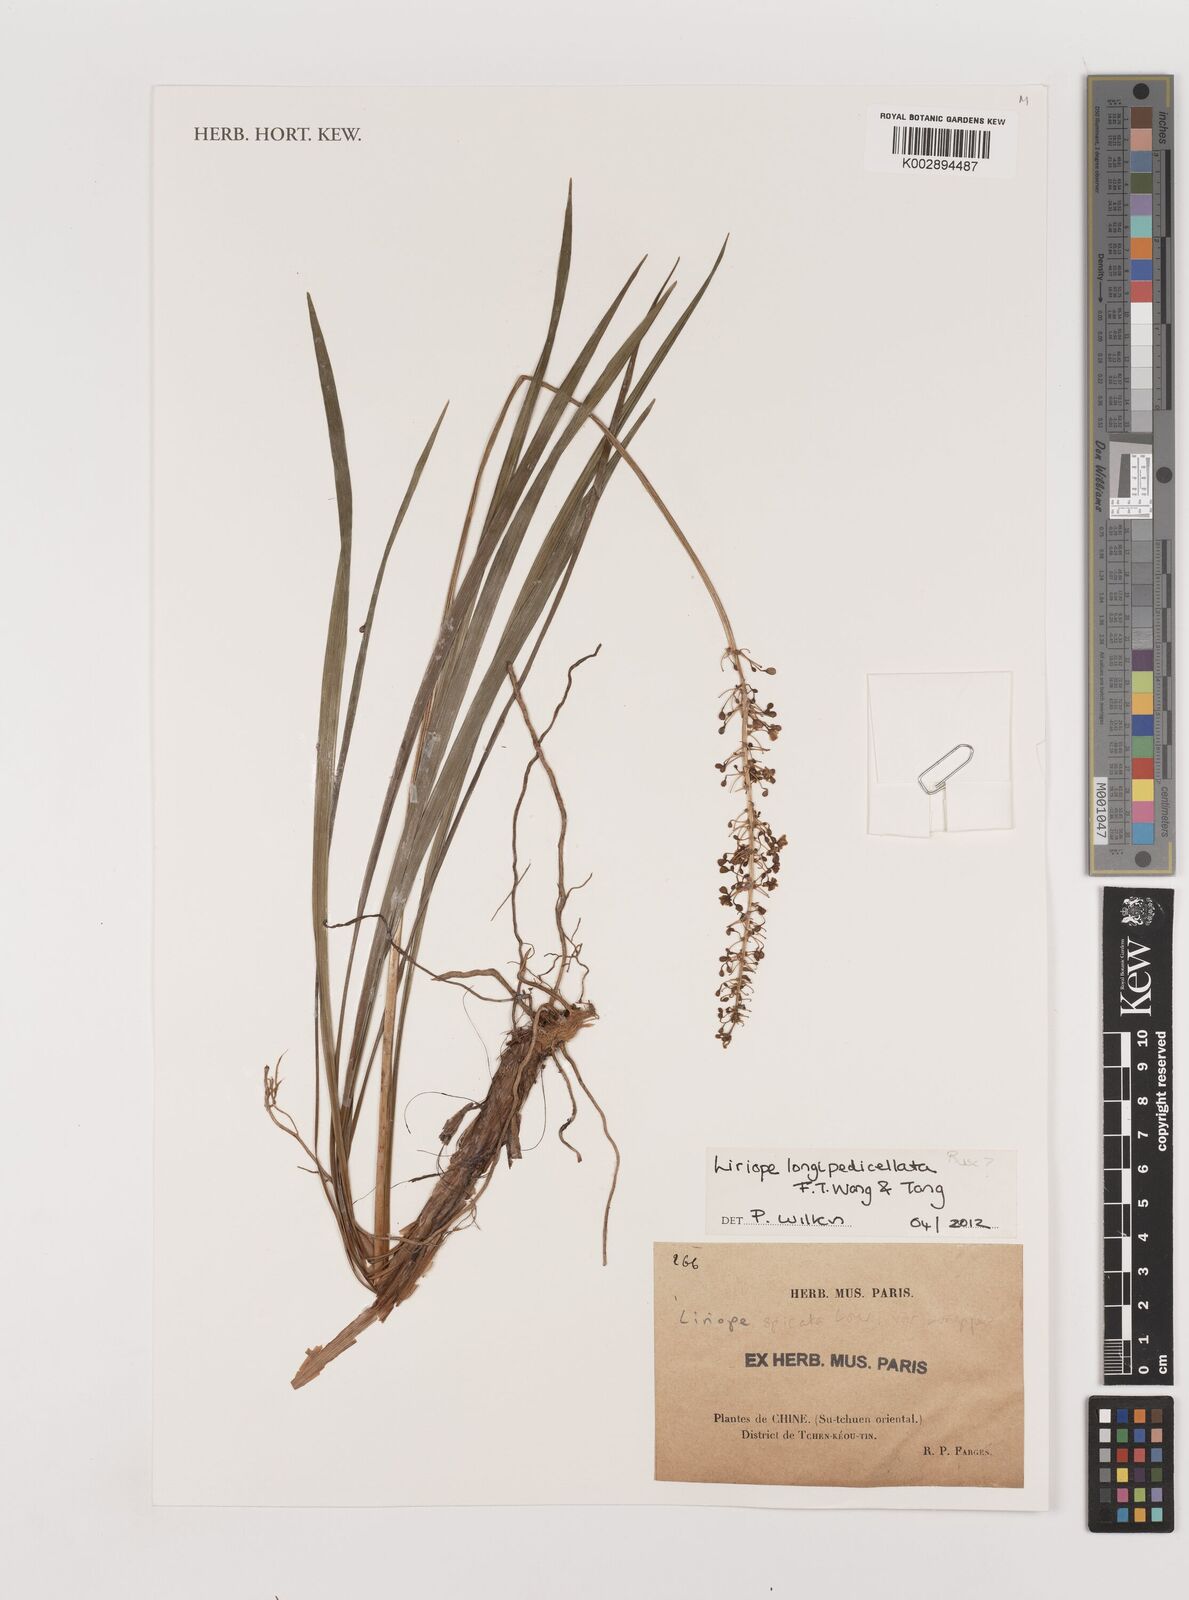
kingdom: Plantae
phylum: Tracheophyta
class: Liliopsida
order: Asparagales
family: Asparagaceae
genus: Liriope
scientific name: Liriope longipedicellata
